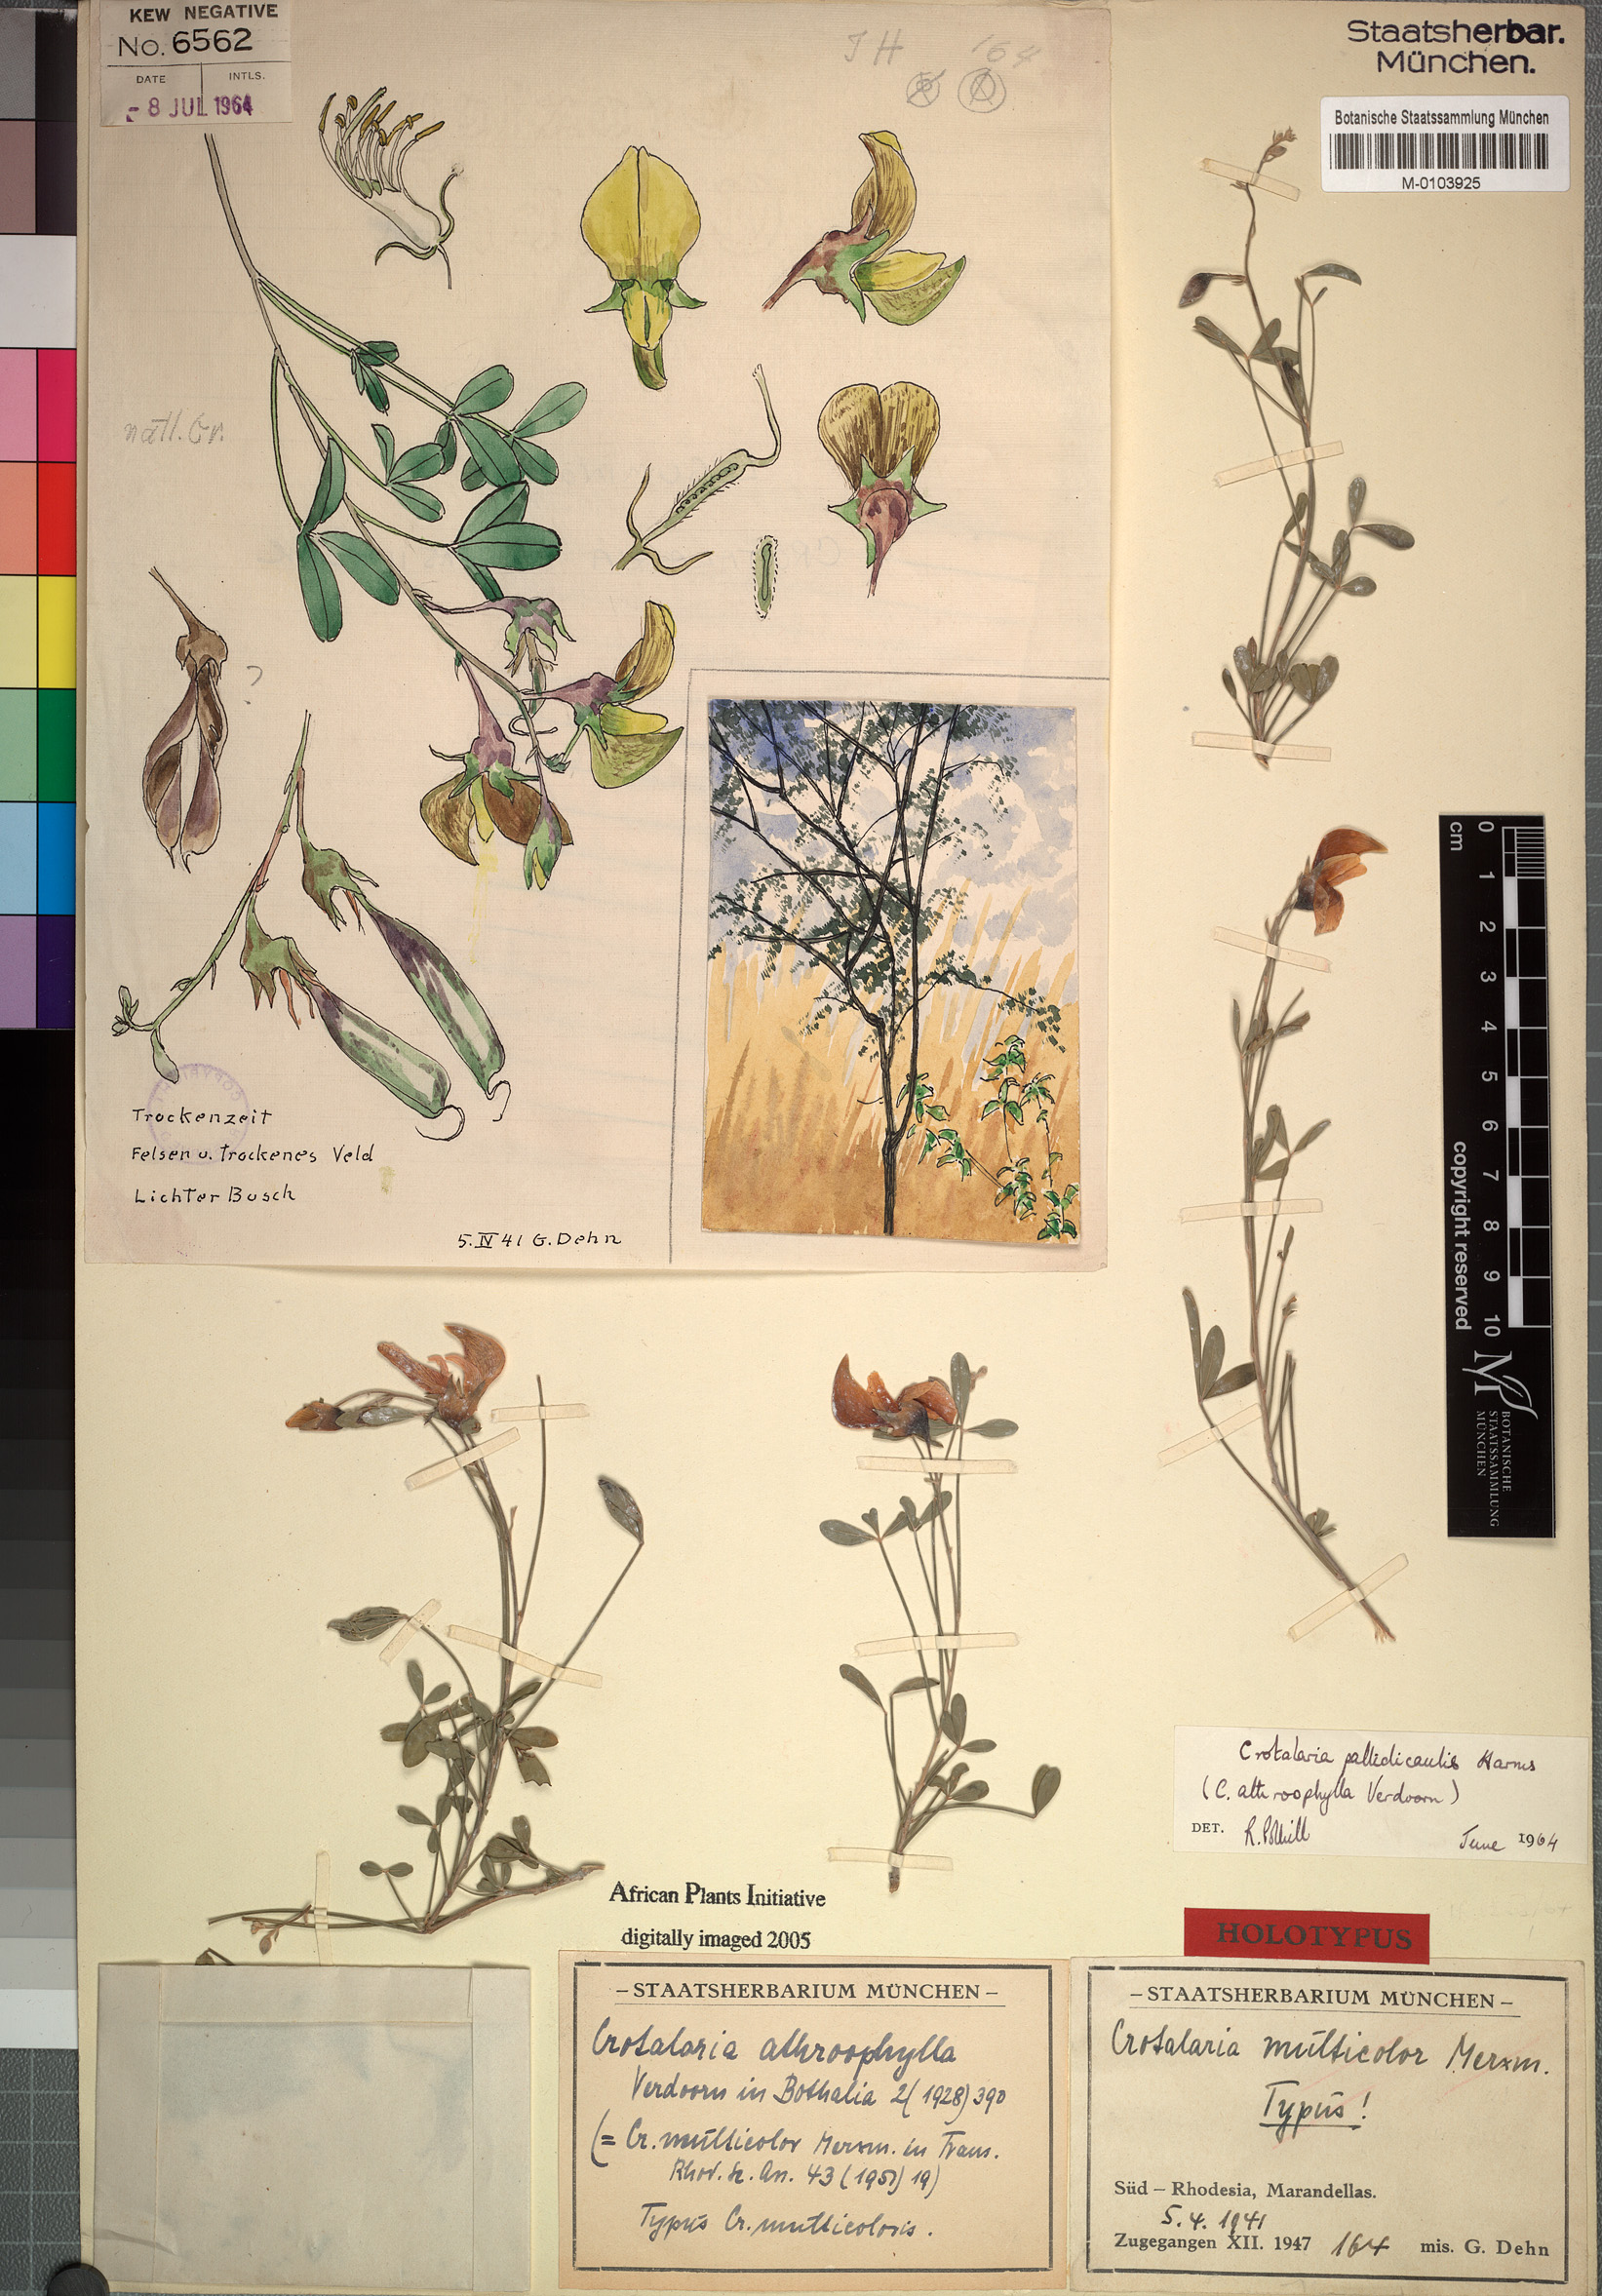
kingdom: Plantae
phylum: Tracheophyta
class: Magnoliopsida
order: Fabales
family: Fabaceae
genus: Crotalaria
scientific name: Crotalaria pallidicaulis
